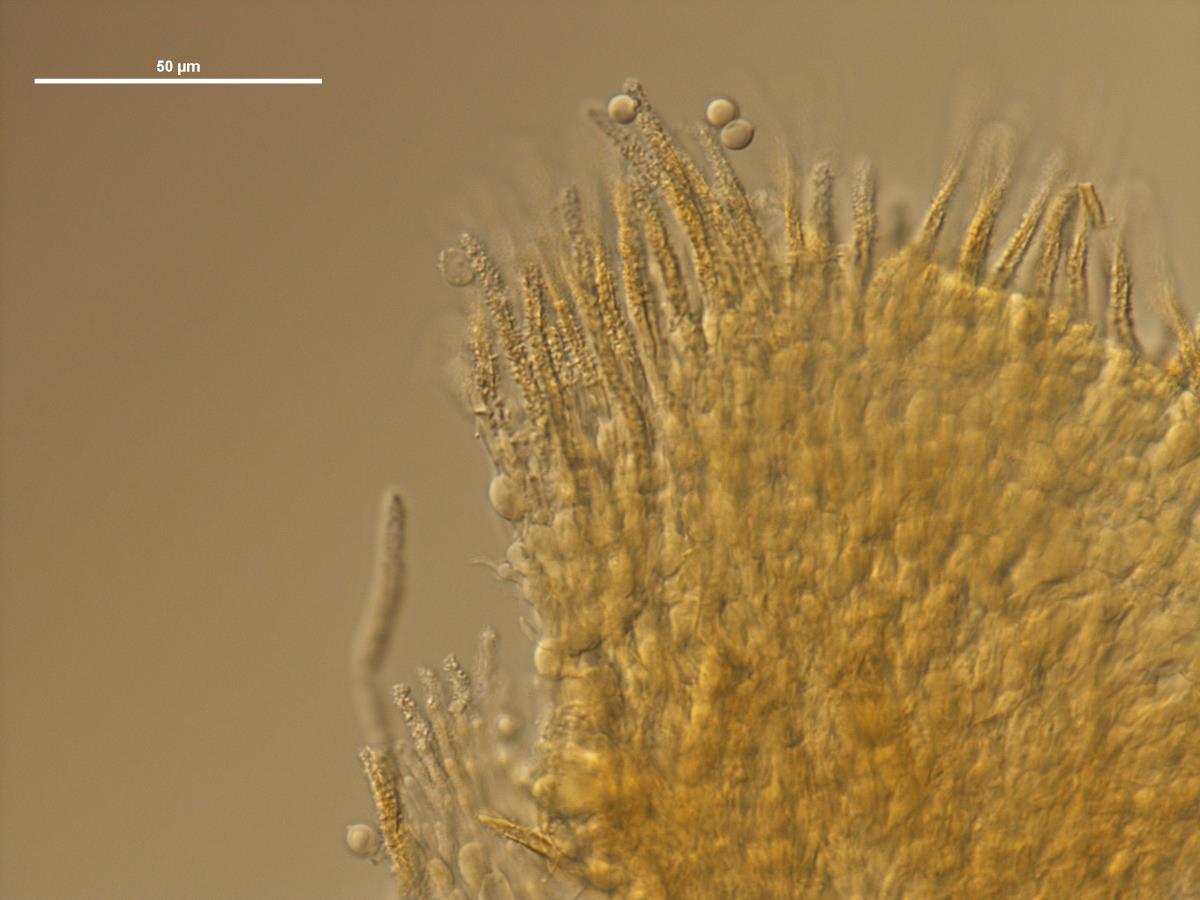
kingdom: Fungi
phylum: Basidiomycota
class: Agaricomycetes
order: Agaricales
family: Marasmiaceae
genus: Rectipilus
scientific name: Rectipilus sulphureus
